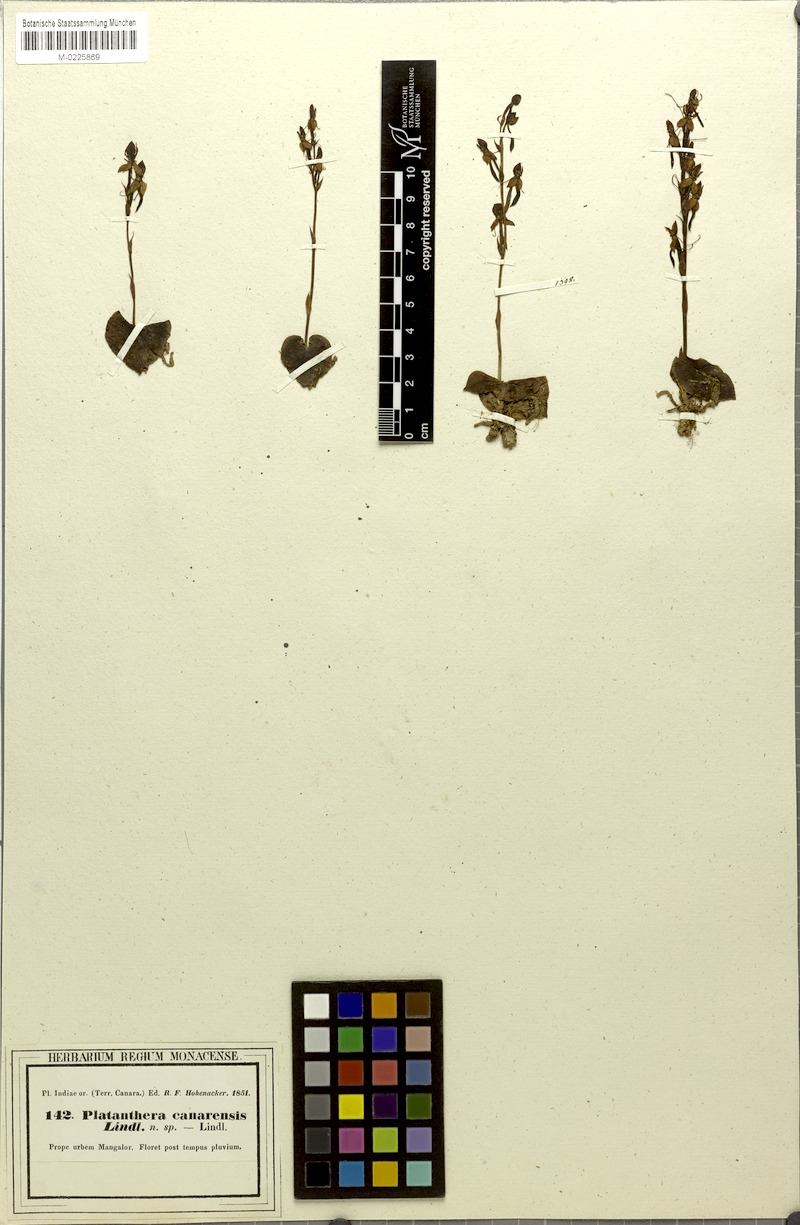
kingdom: Plantae
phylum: Tracheophyta
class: Liliopsida
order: Asparagales
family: Orchidaceae
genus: Habenaria
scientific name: Habenaria brachyphylla
